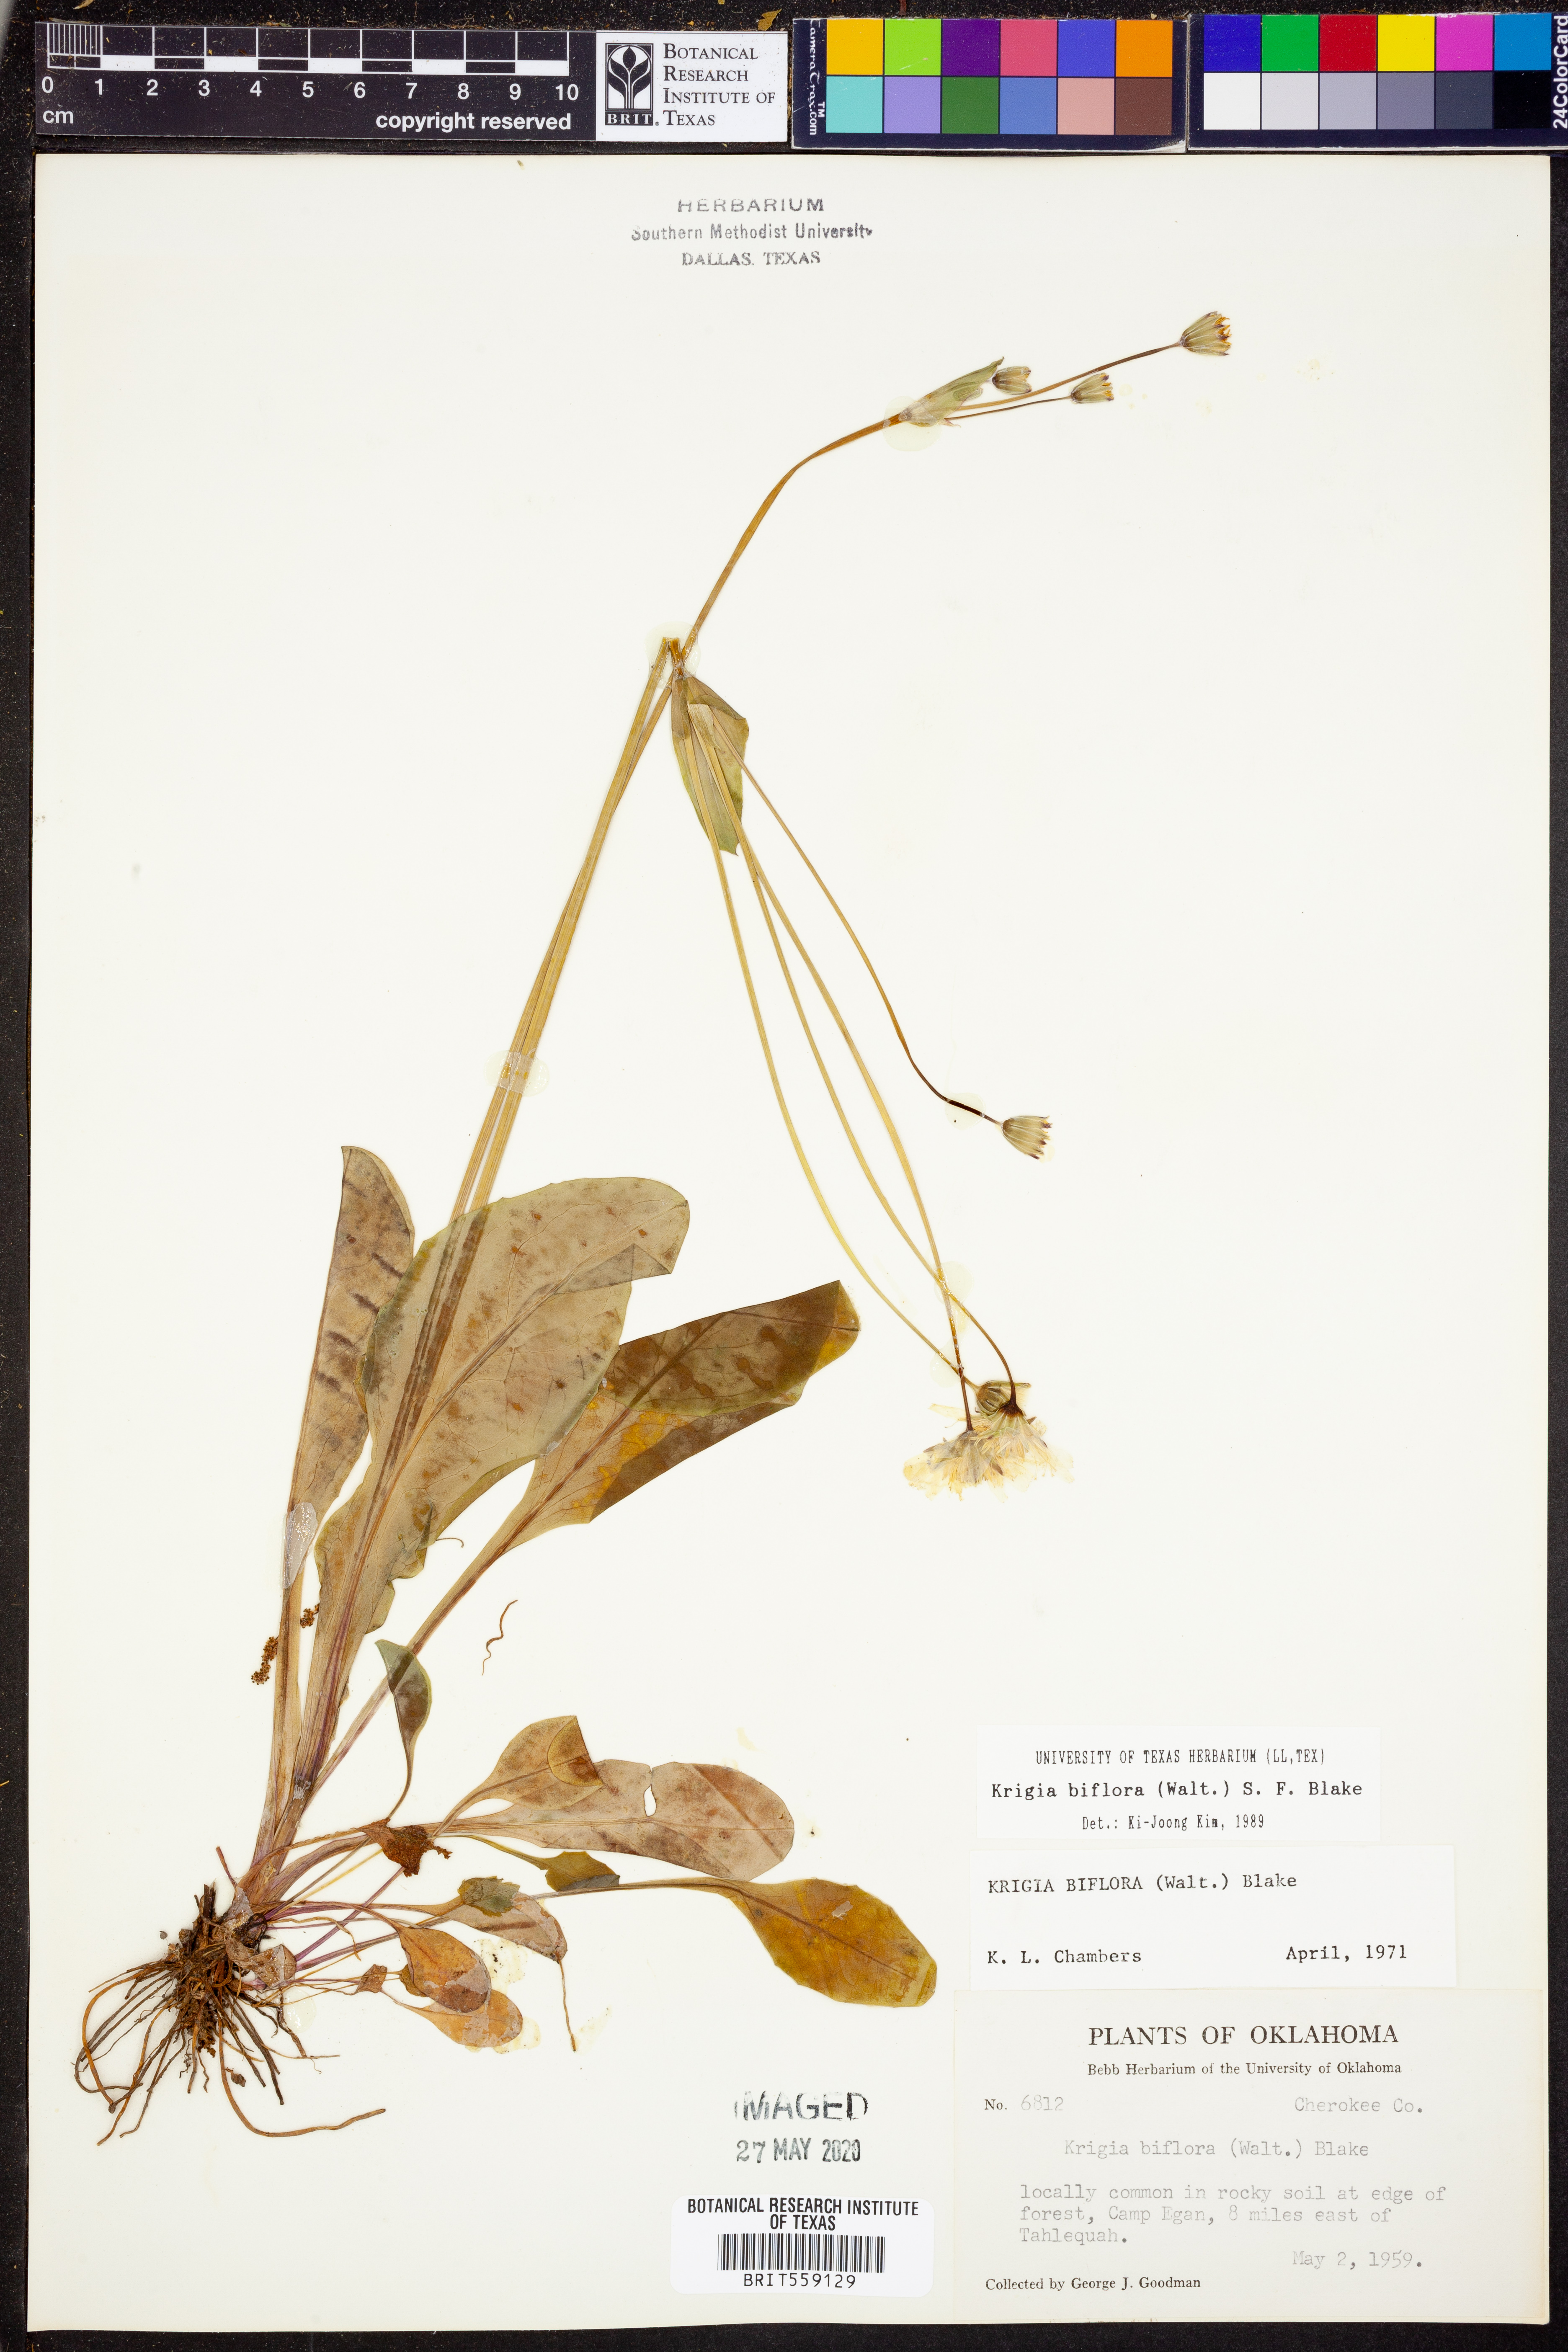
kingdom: Plantae
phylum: Tracheophyta
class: Magnoliopsida
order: Asterales
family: Asteraceae
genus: Krigia
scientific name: Krigia biflora
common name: Orange dwarf-dandelion
